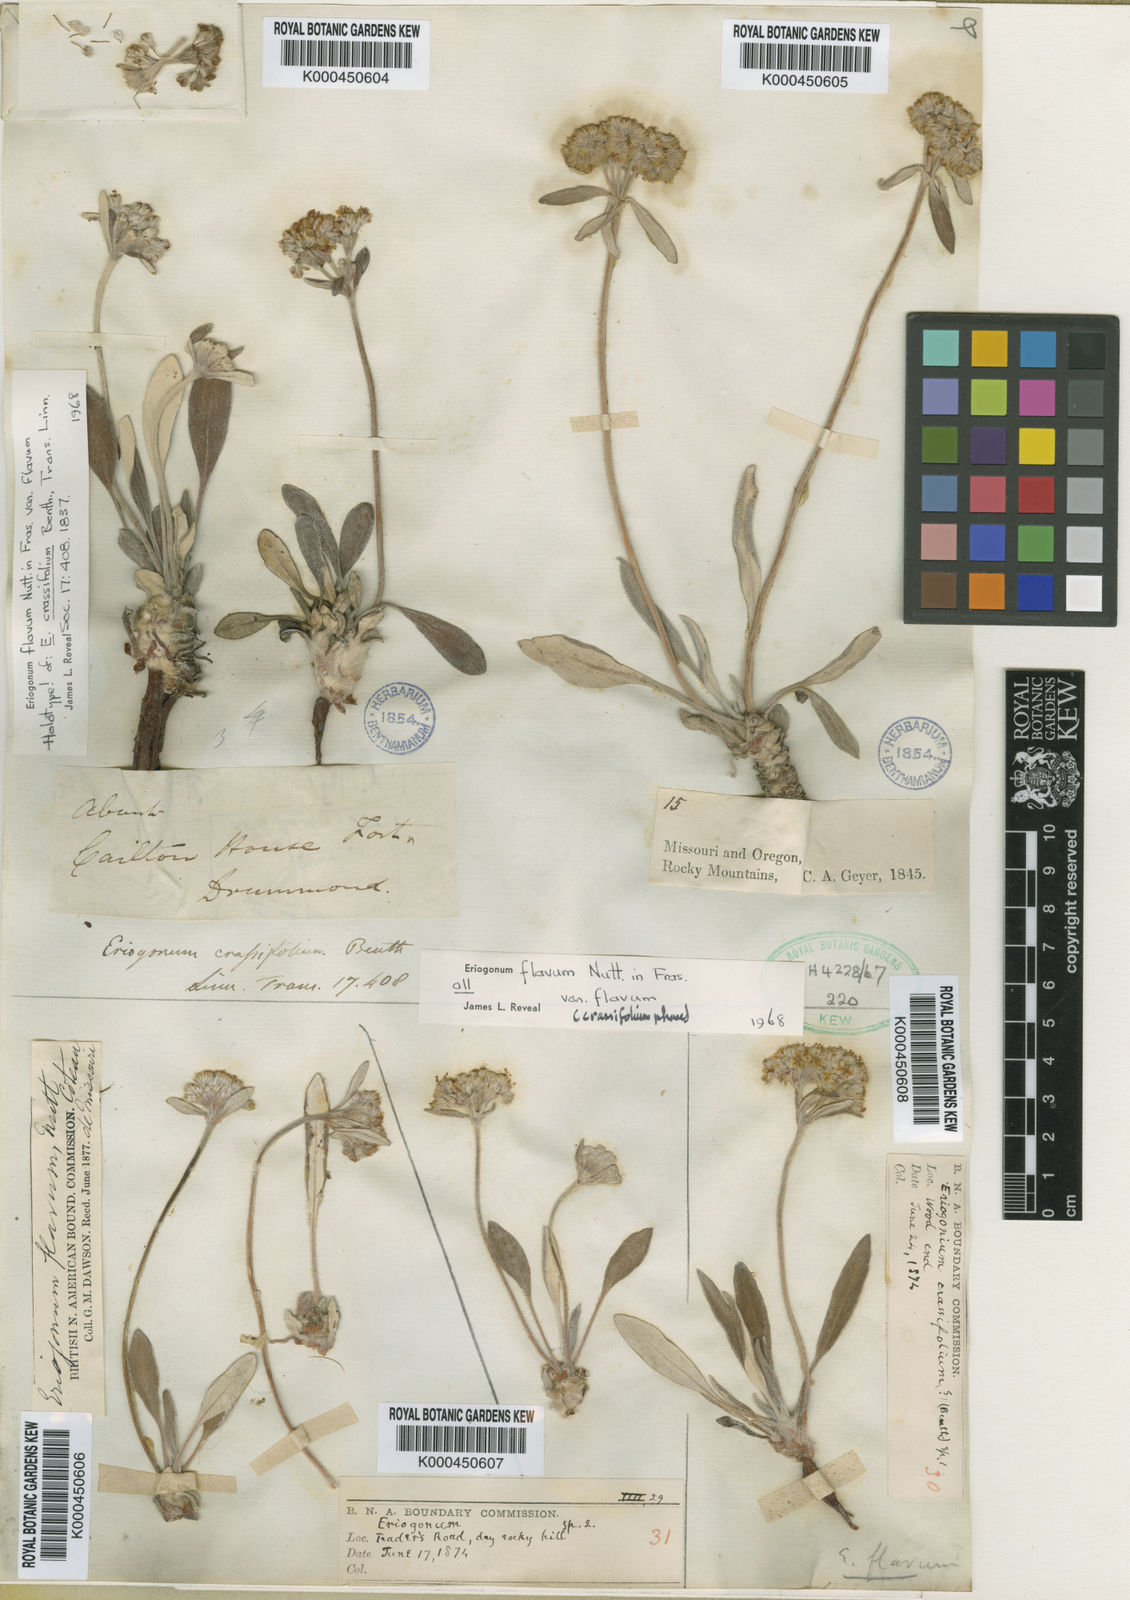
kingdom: Plantae
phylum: Tracheophyta
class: Magnoliopsida
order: Caryophyllales
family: Polygonaceae
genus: Eriogonum
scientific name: Eriogonum
